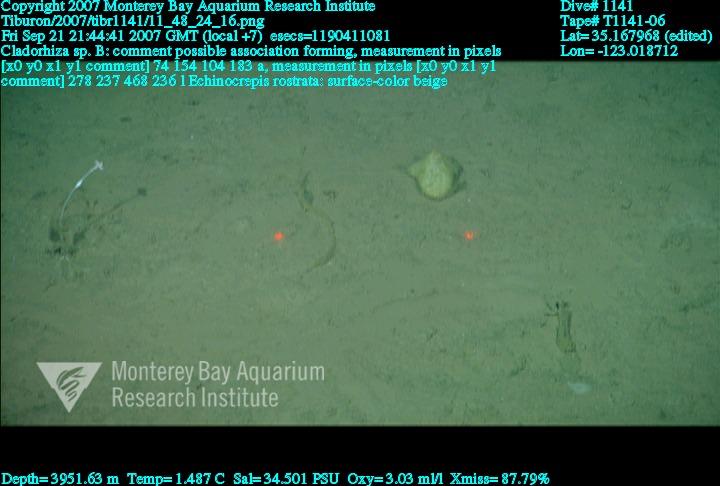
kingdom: Animalia
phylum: Porifera
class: Demospongiae
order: Poecilosclerida
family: Cladorhizidae
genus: Cladorhiza
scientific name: Cladorhiza
